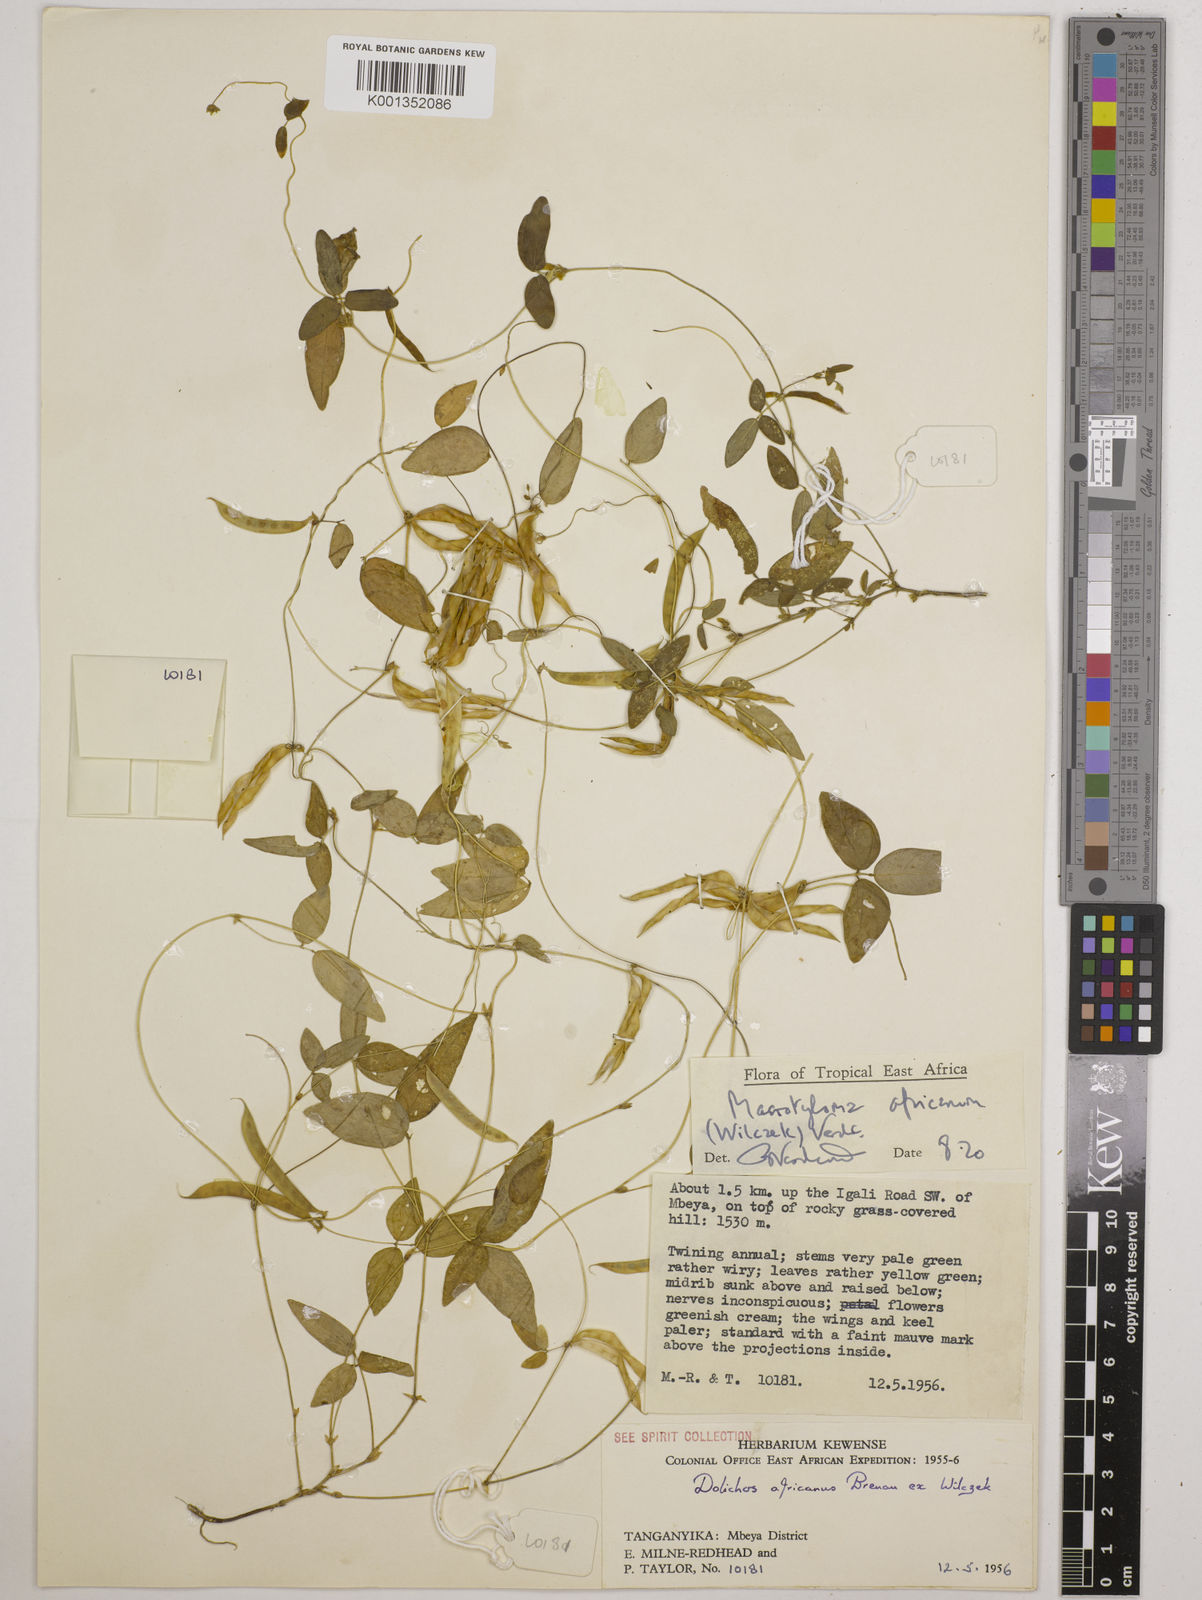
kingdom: Plantae
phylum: Tracheophyta
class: Magnoliopsida
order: Fabales
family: Fabaceae
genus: Macrotyloma
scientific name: Macrotyloma africanum
